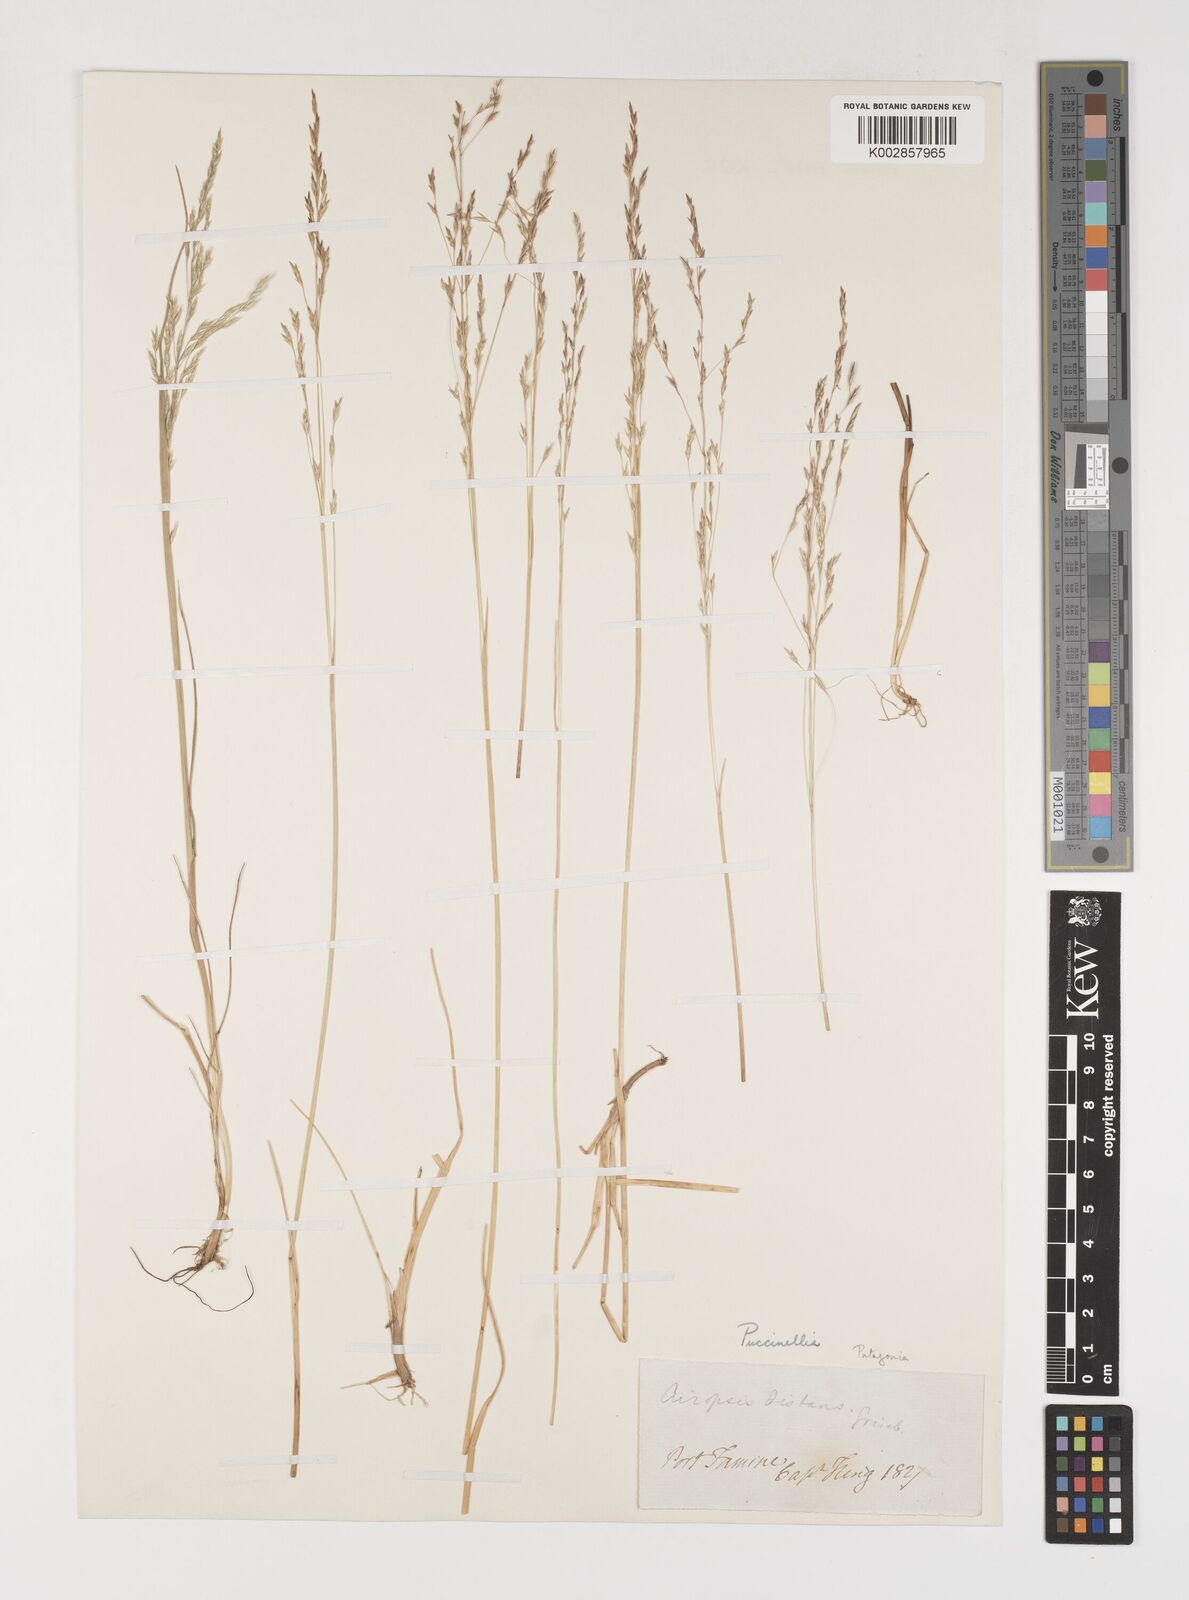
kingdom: Plantae
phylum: Tracheophyta
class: Liliopsida
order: Poales
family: Poaceae
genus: Puccinellia
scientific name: Puccinellia magellanica
